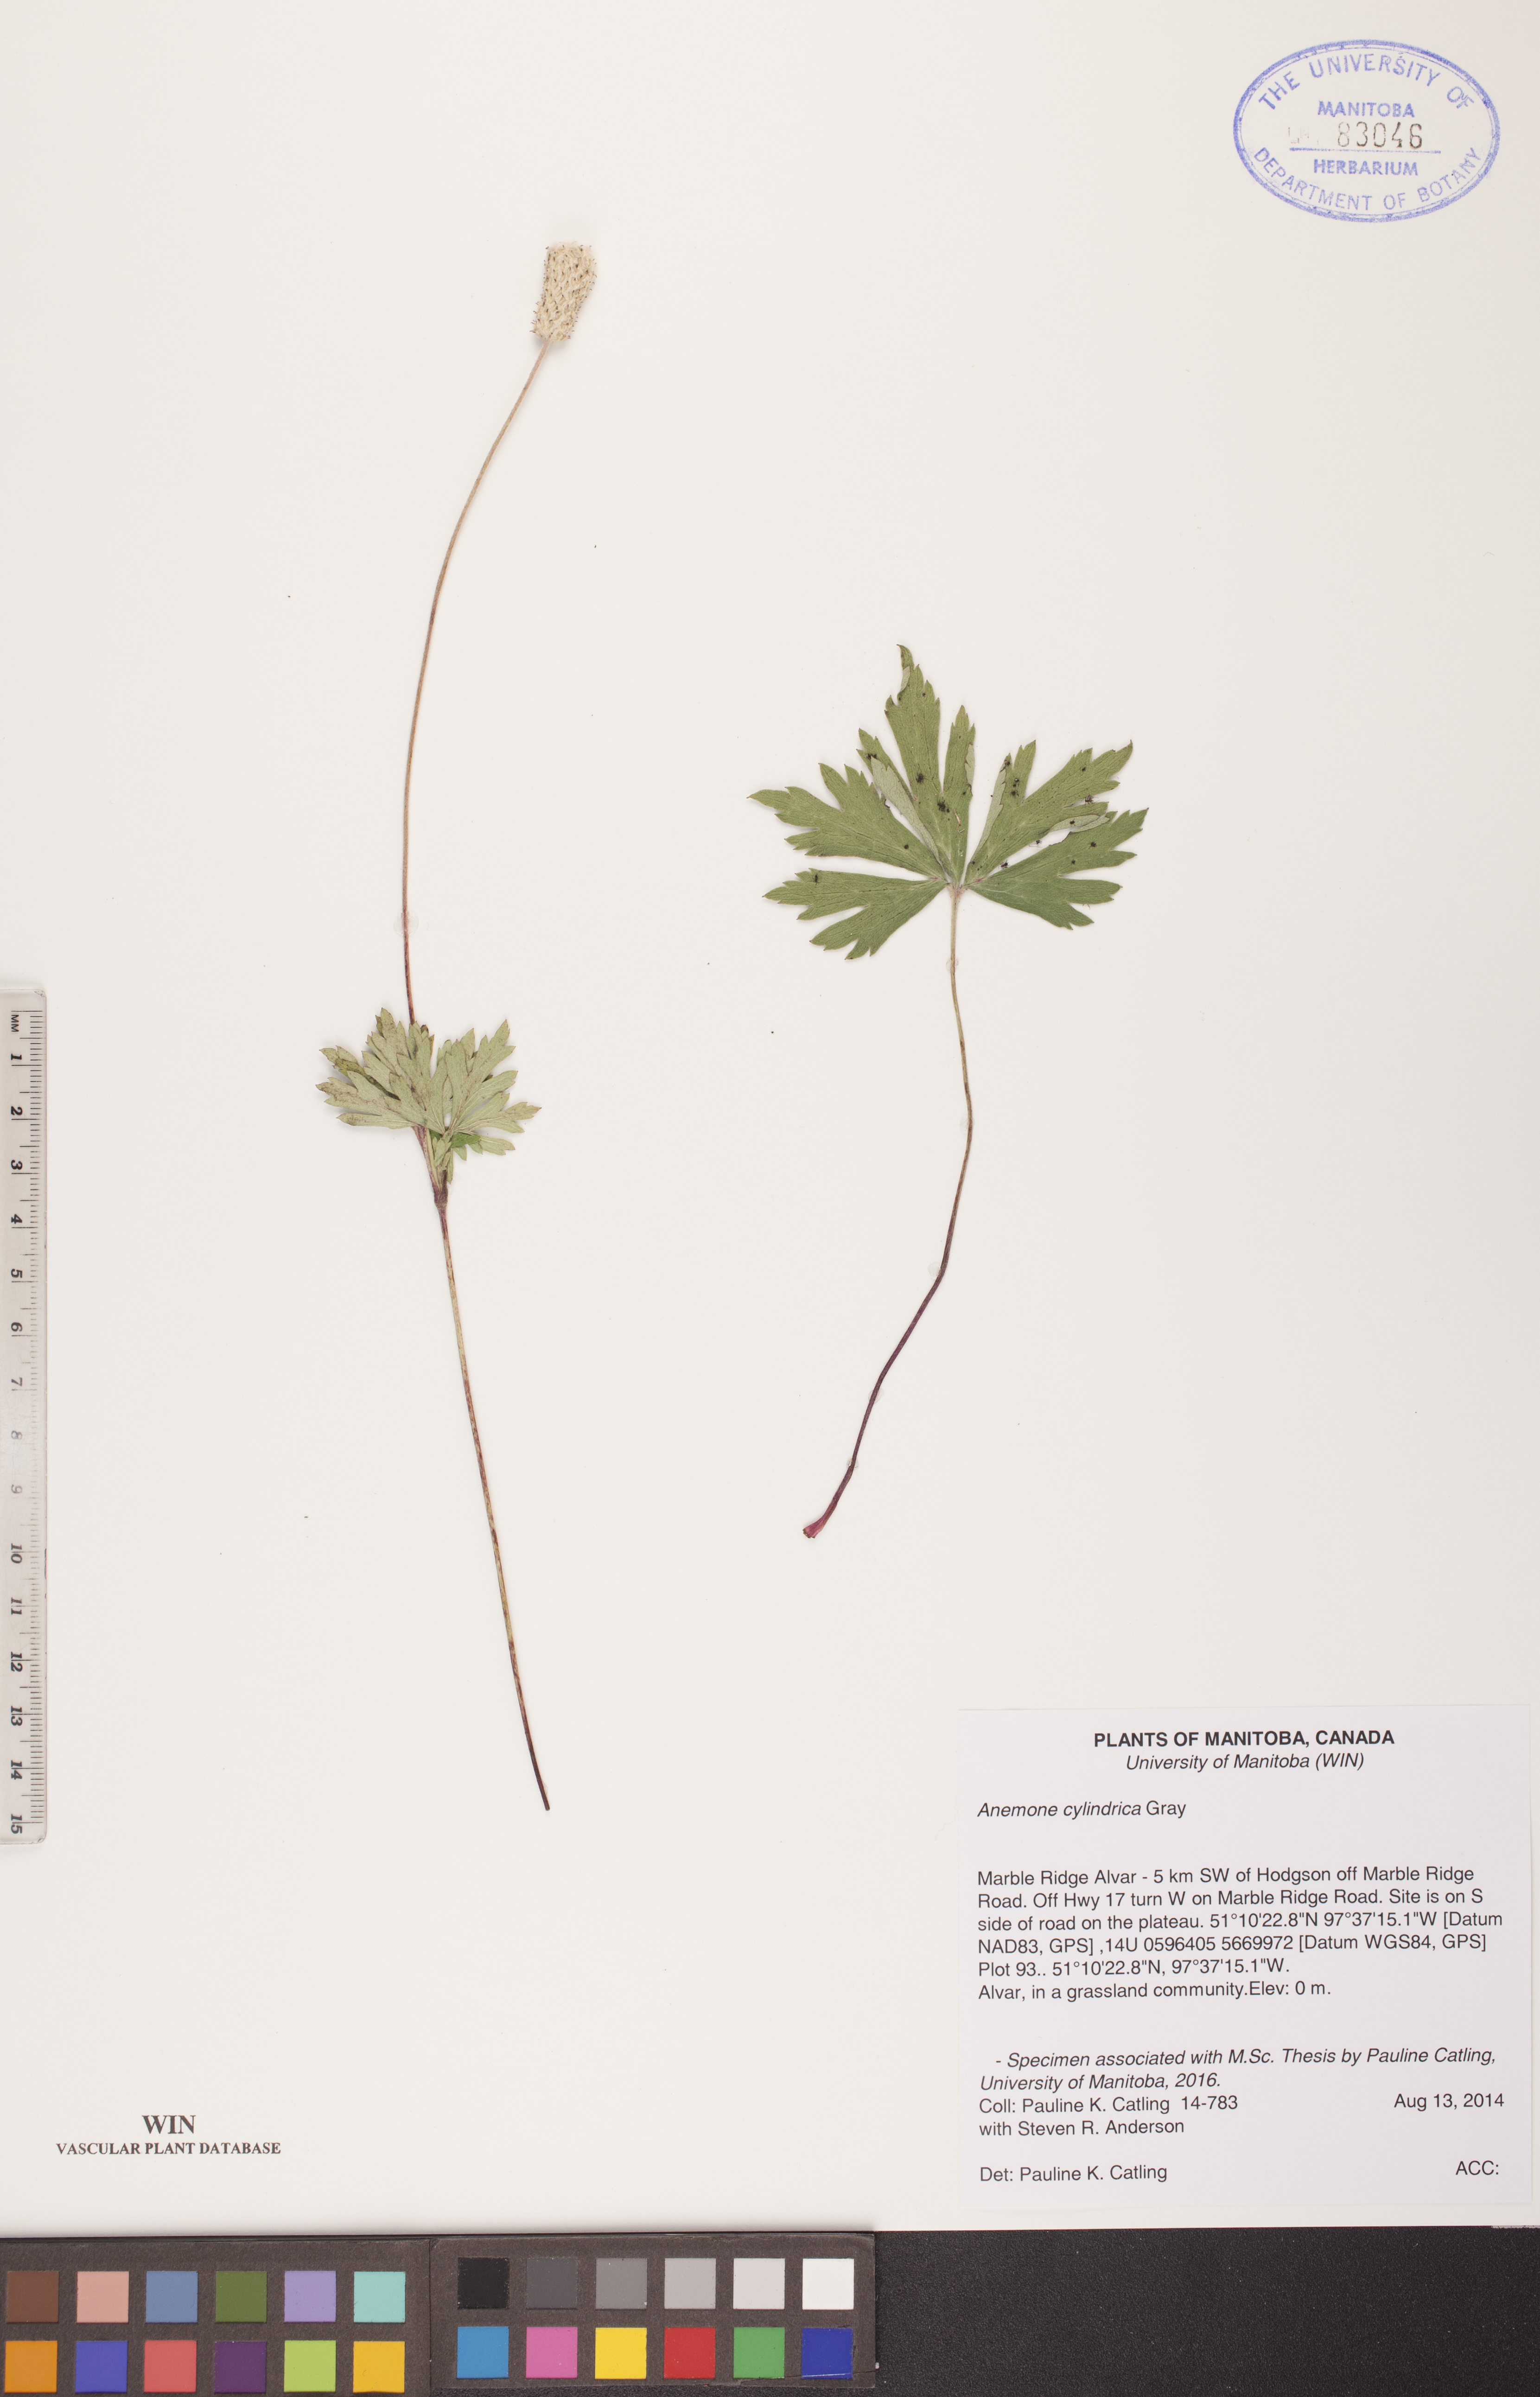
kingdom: Plantae
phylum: Tracheophyta
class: Magnoliopsida
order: Ranunculales
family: Ranunculaceae
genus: Anemone
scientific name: Anemone cylindrica
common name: Candle anemone
